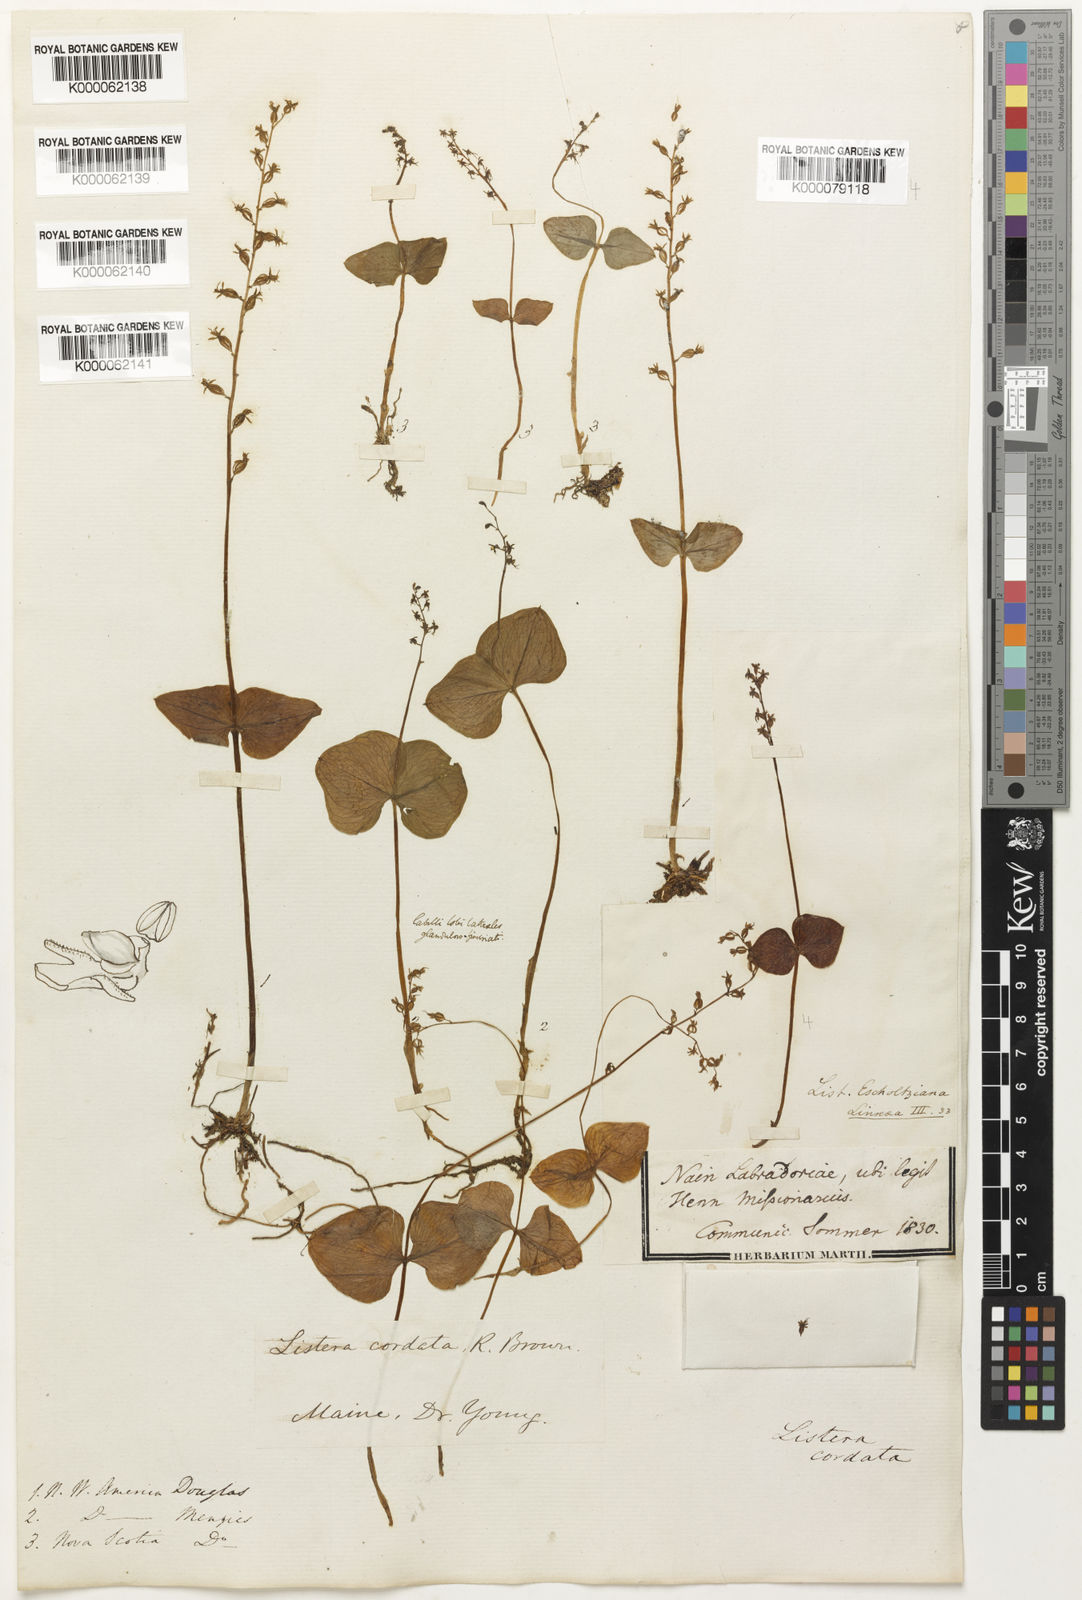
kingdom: Plantae
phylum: Tracheophyta
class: Liliopsida
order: Asparagales
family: Orchidaceae
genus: Neottia
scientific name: Neottia cordata
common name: Lesser twayblade
